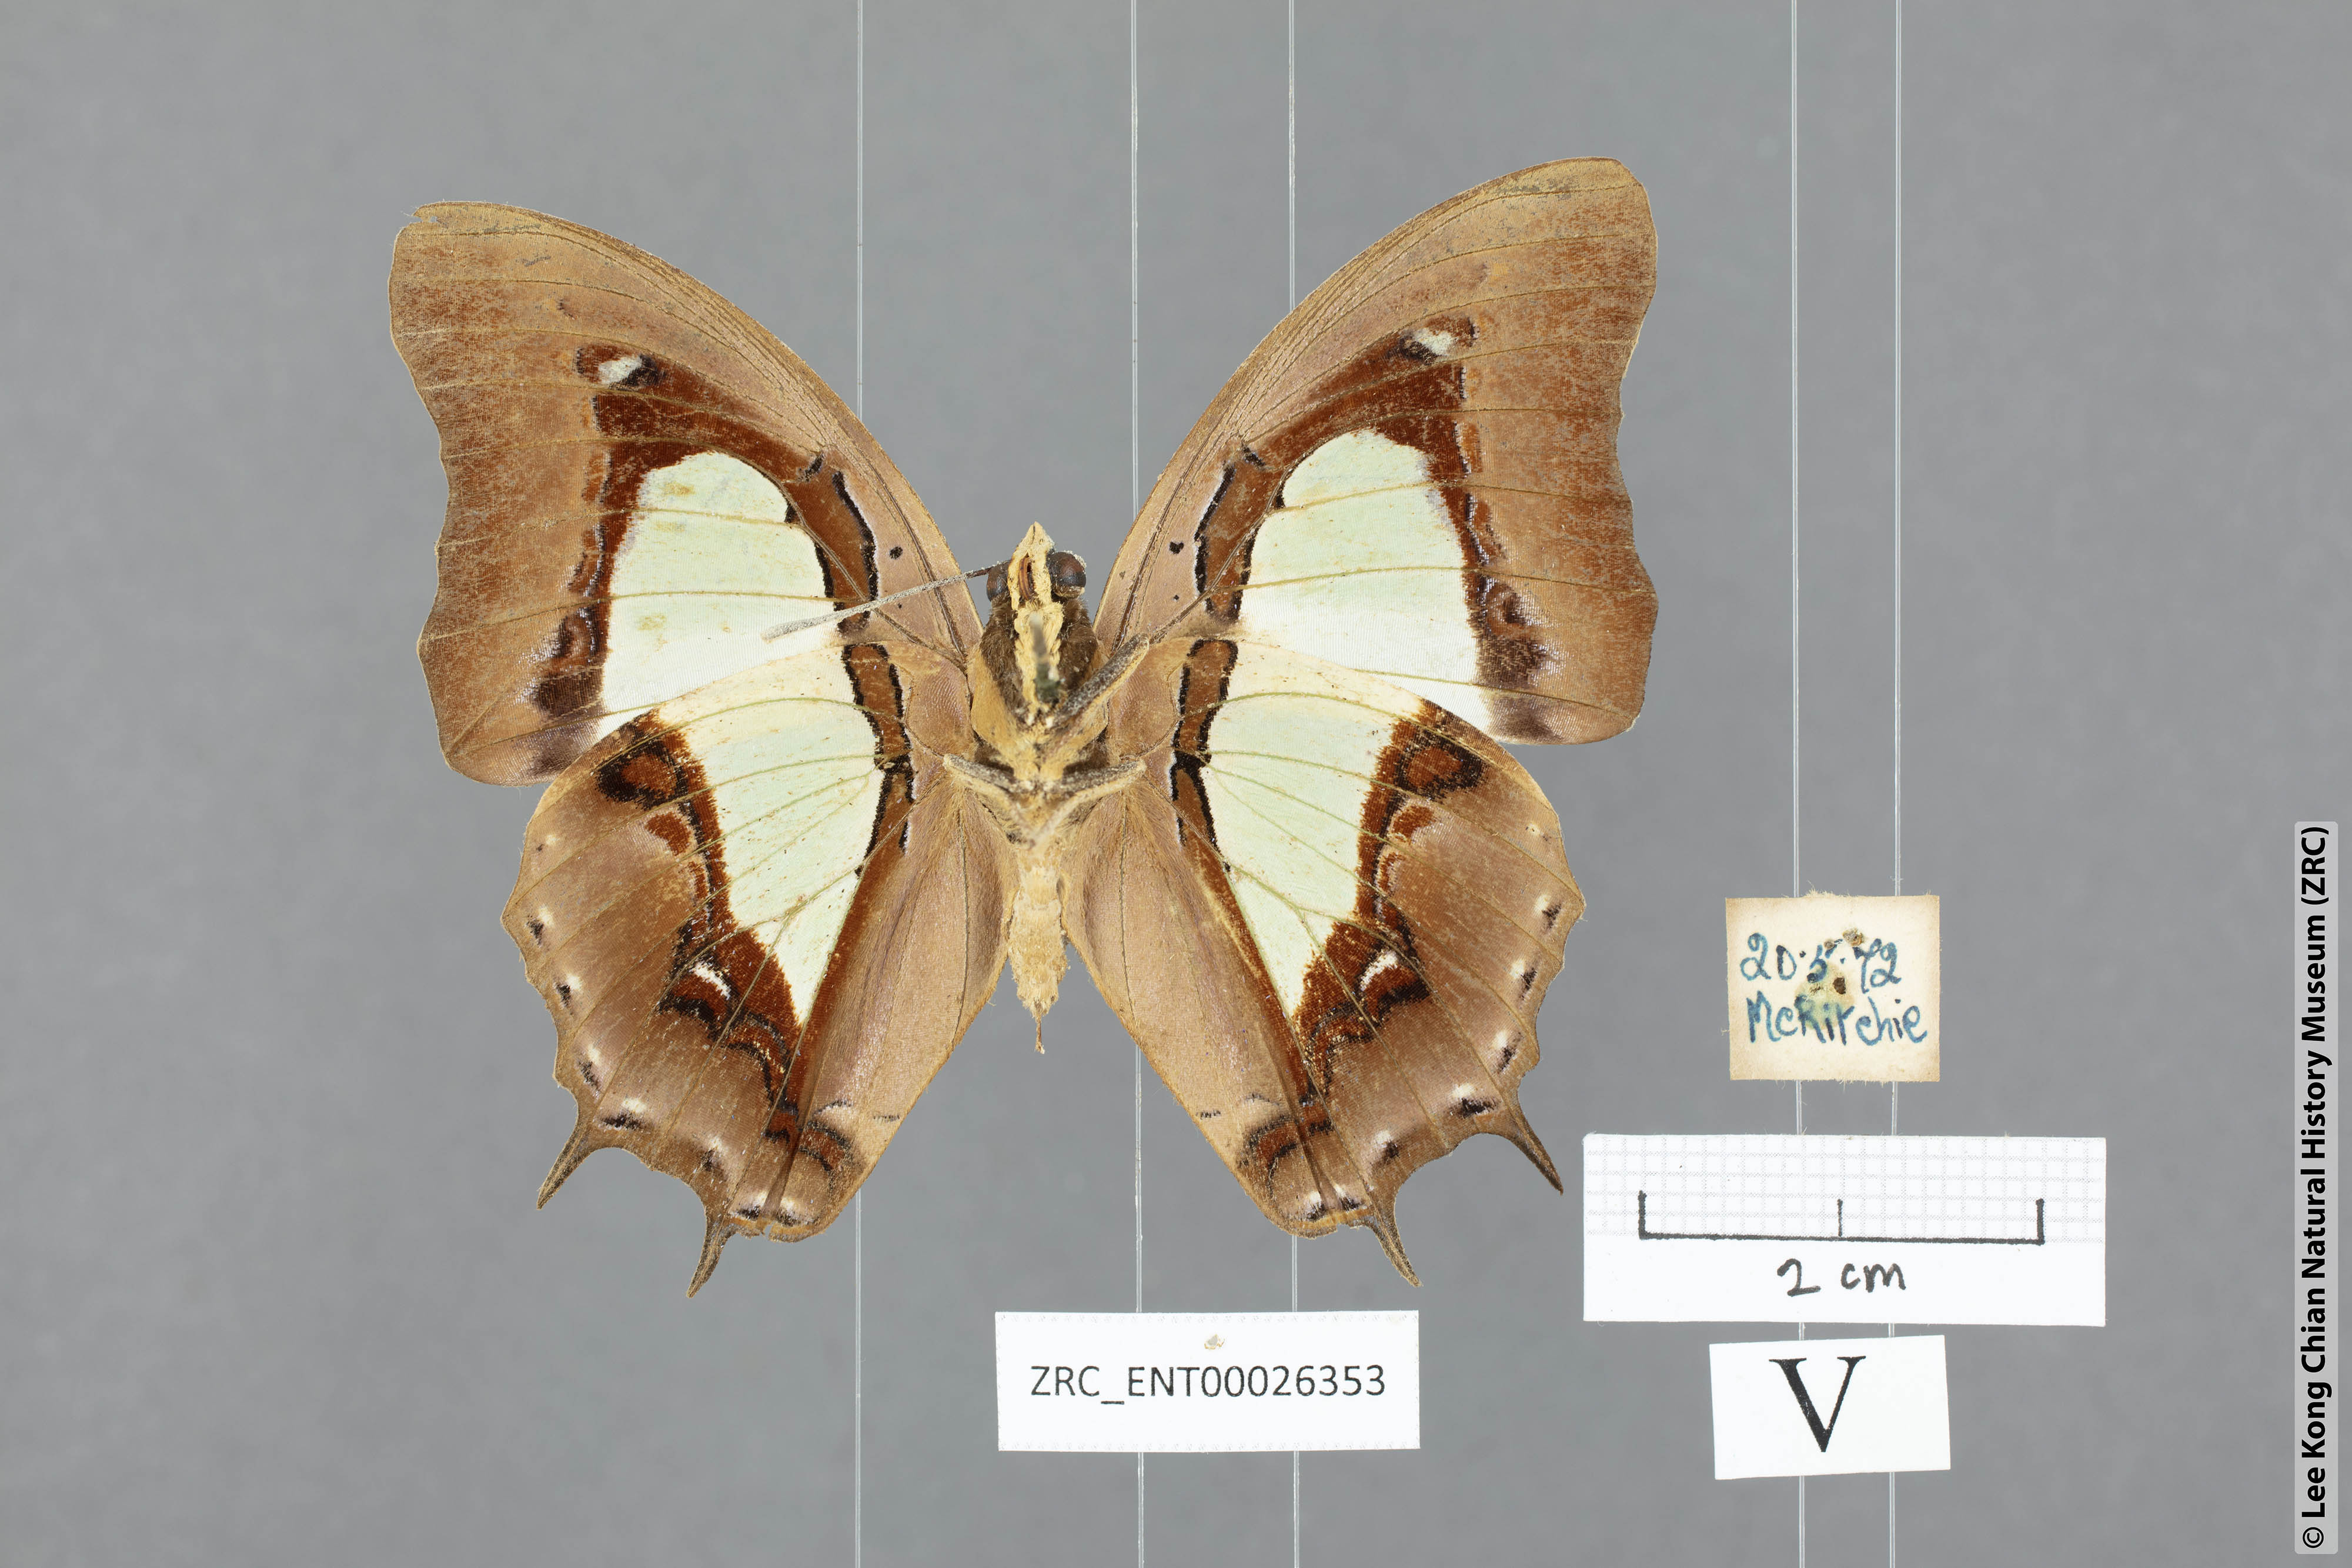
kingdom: Animalia
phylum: Arthropoda
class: Insecta
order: Lepidoptera
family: Nymphalidae
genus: Polyura
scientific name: Polyura hebe
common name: Plain nawab
